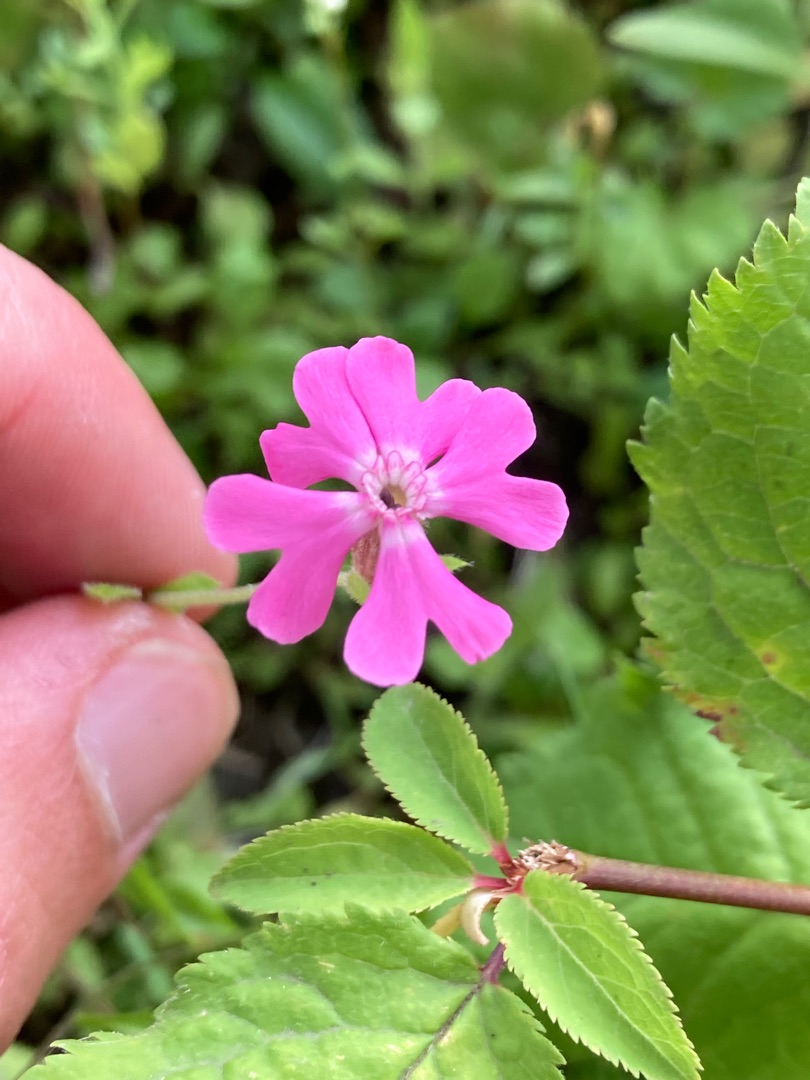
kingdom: Plantae
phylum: Tracheophyta
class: Magnoliopsida
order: Caryophyllales
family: Caryophyllaceae
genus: Atocion
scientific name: Atocion armeria
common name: Knippe-limurt
